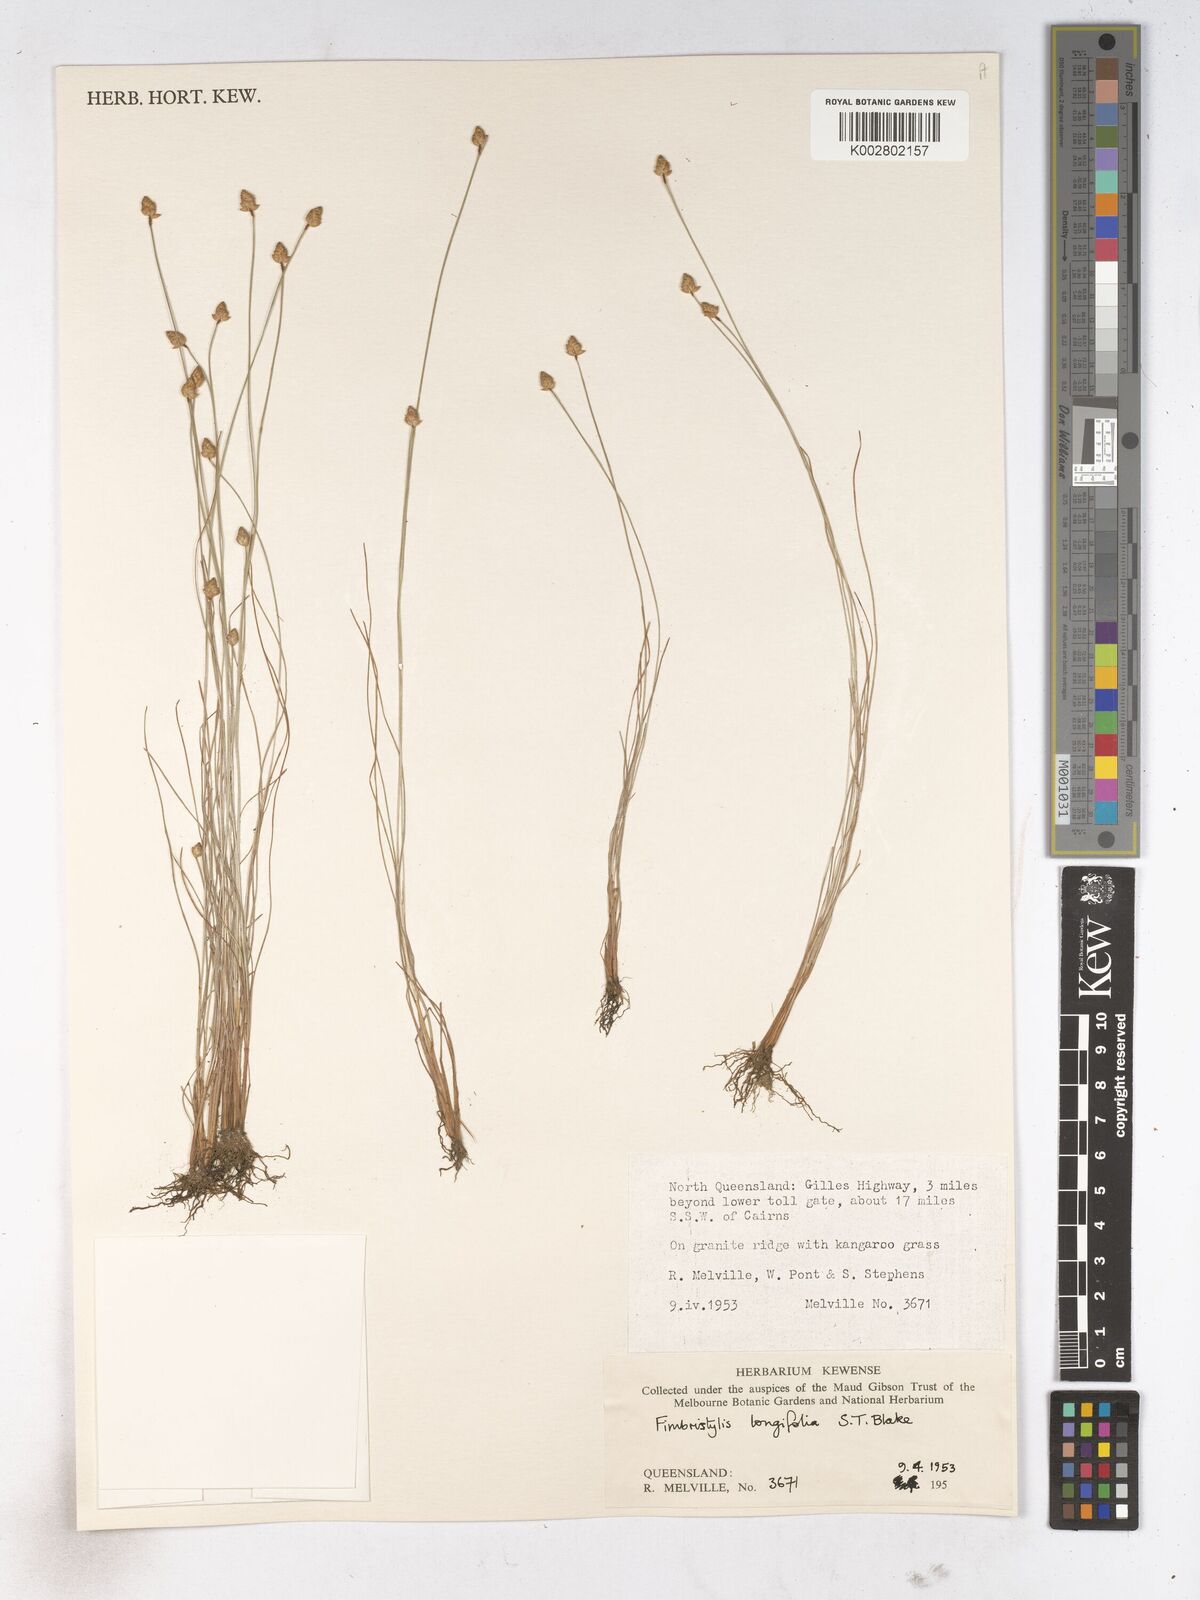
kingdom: Plantae
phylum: Tracheophyta
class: Liliopsida
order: Poales
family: Cyperaceae
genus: Fimbristylis
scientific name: Fimbristylis schoenoides
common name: Ditch fimbry
